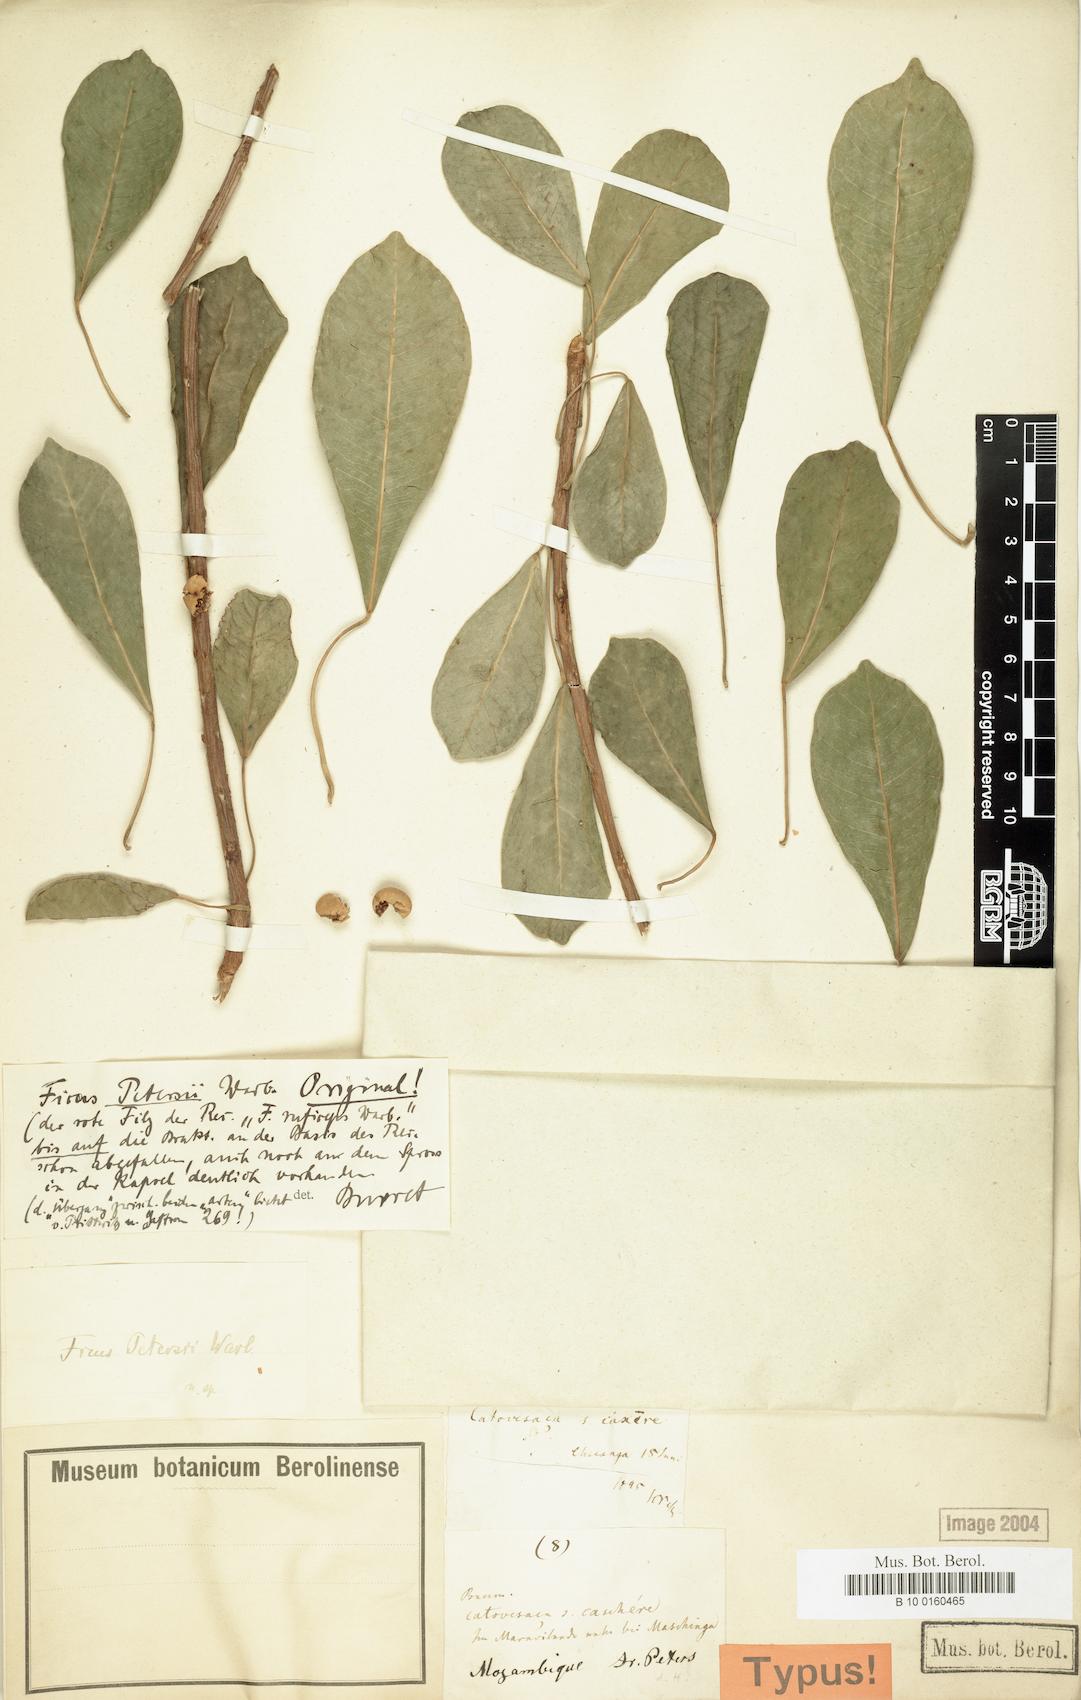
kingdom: Plantae
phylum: Tracheophyta
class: Magnoliopsida
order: Rosales
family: Moraceae
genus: Ficus
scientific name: Ficus petersii
